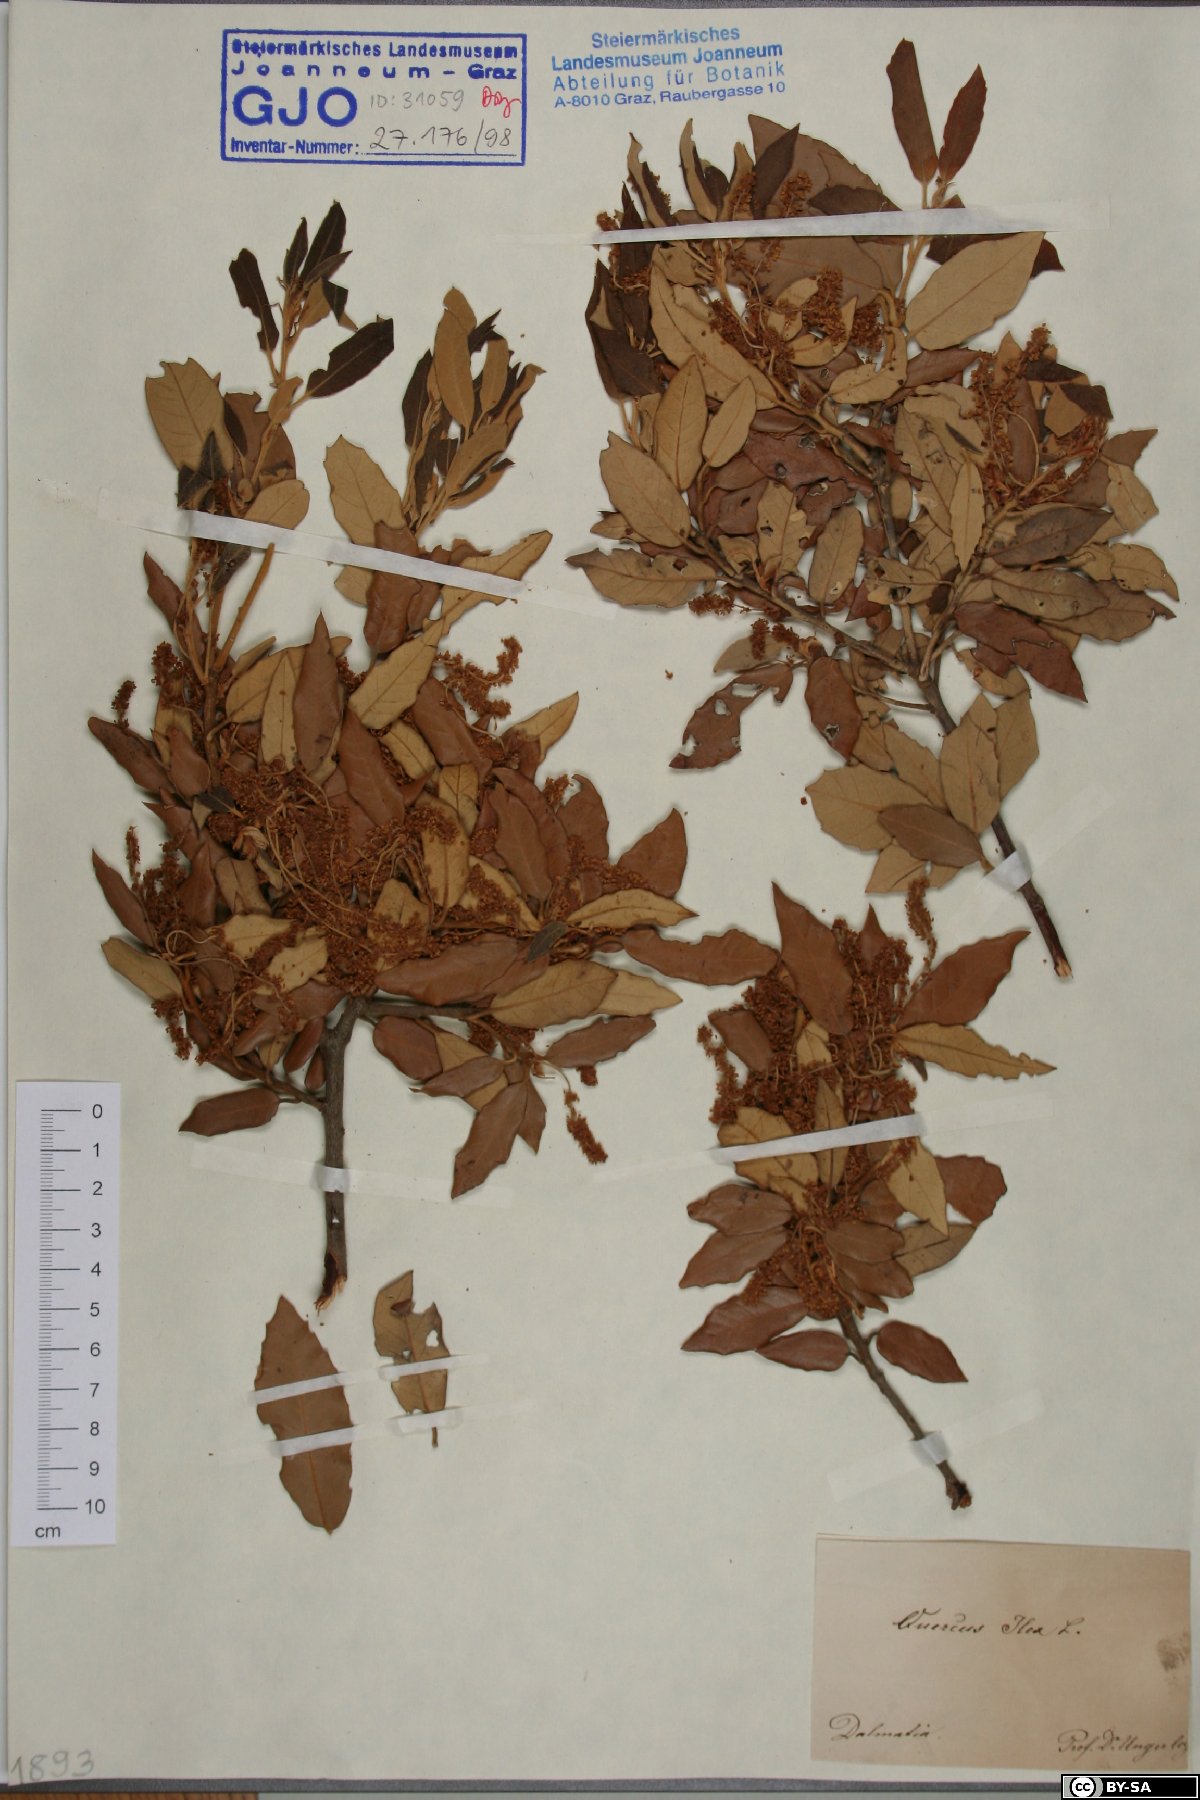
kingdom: Plantae
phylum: Tracheophyta
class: Magnoliopsida
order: Fagales
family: Fagaceae
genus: Quercus
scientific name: Quercus ilex
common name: Evergreen oak
